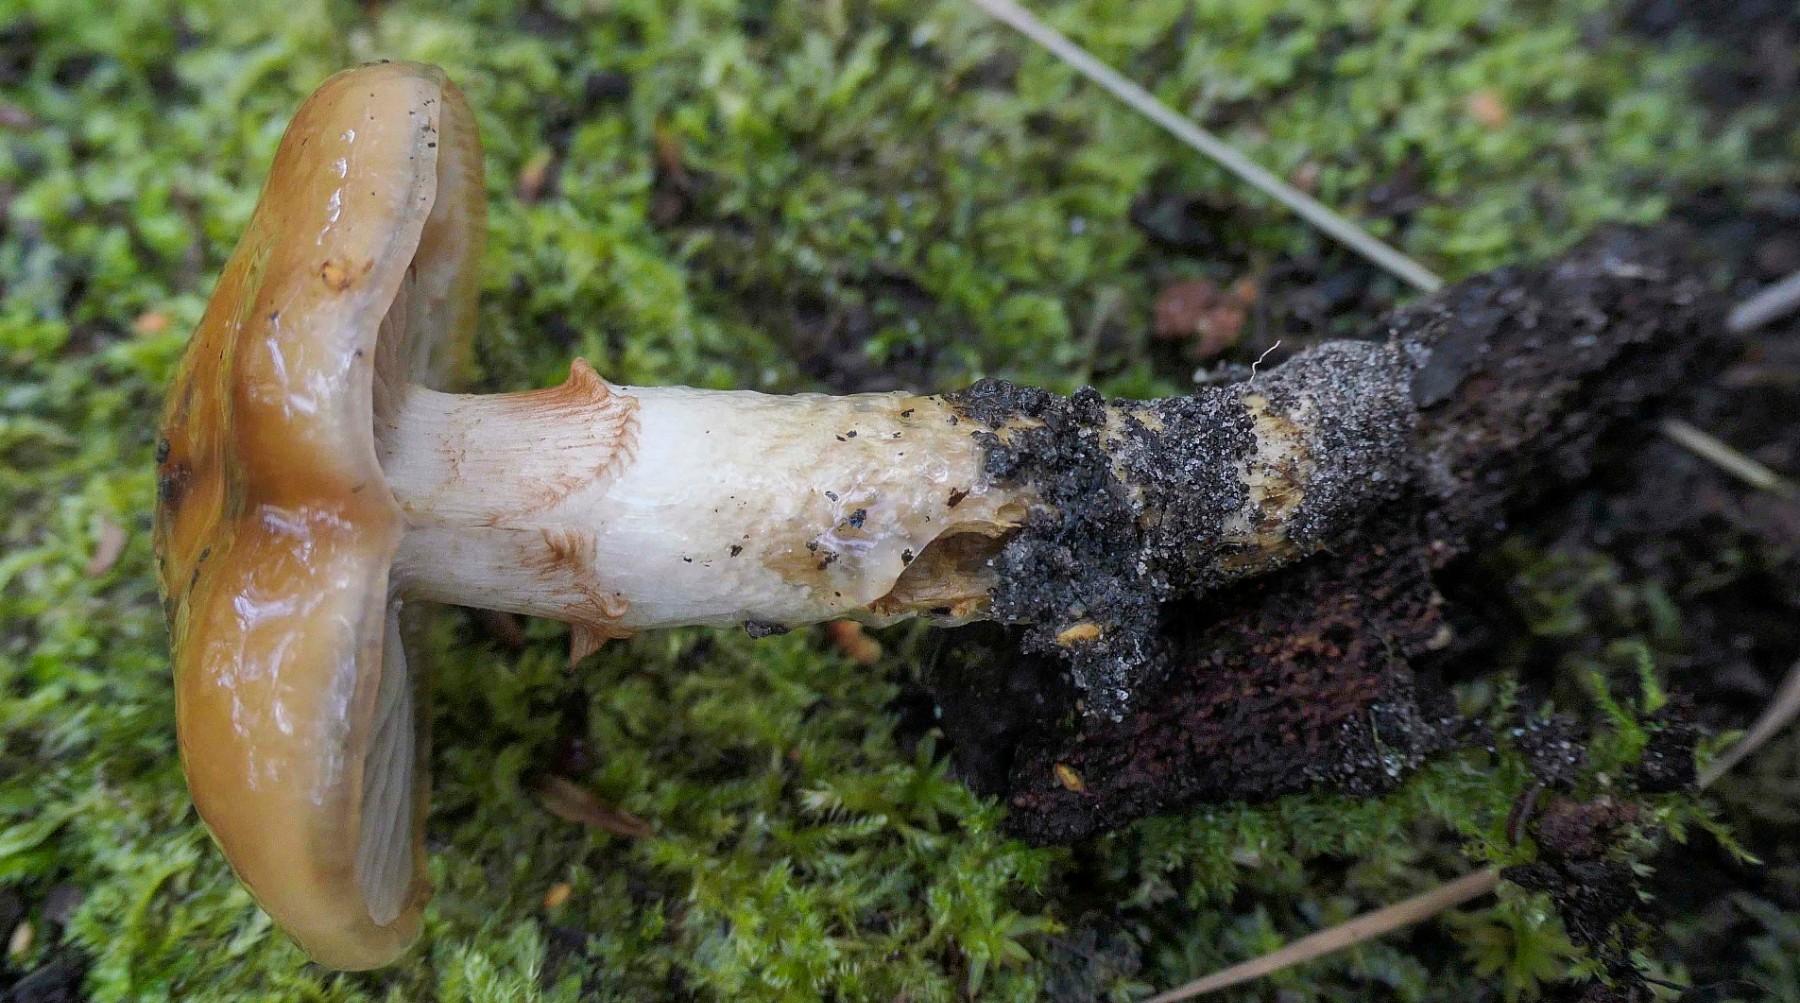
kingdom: Fungi
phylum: Basidiomycota
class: Agaricomycetes
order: Agaricales
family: Cortinariaceae
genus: Cortinarius
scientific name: Cortinarius trivialis
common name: brunslimet slørhat
